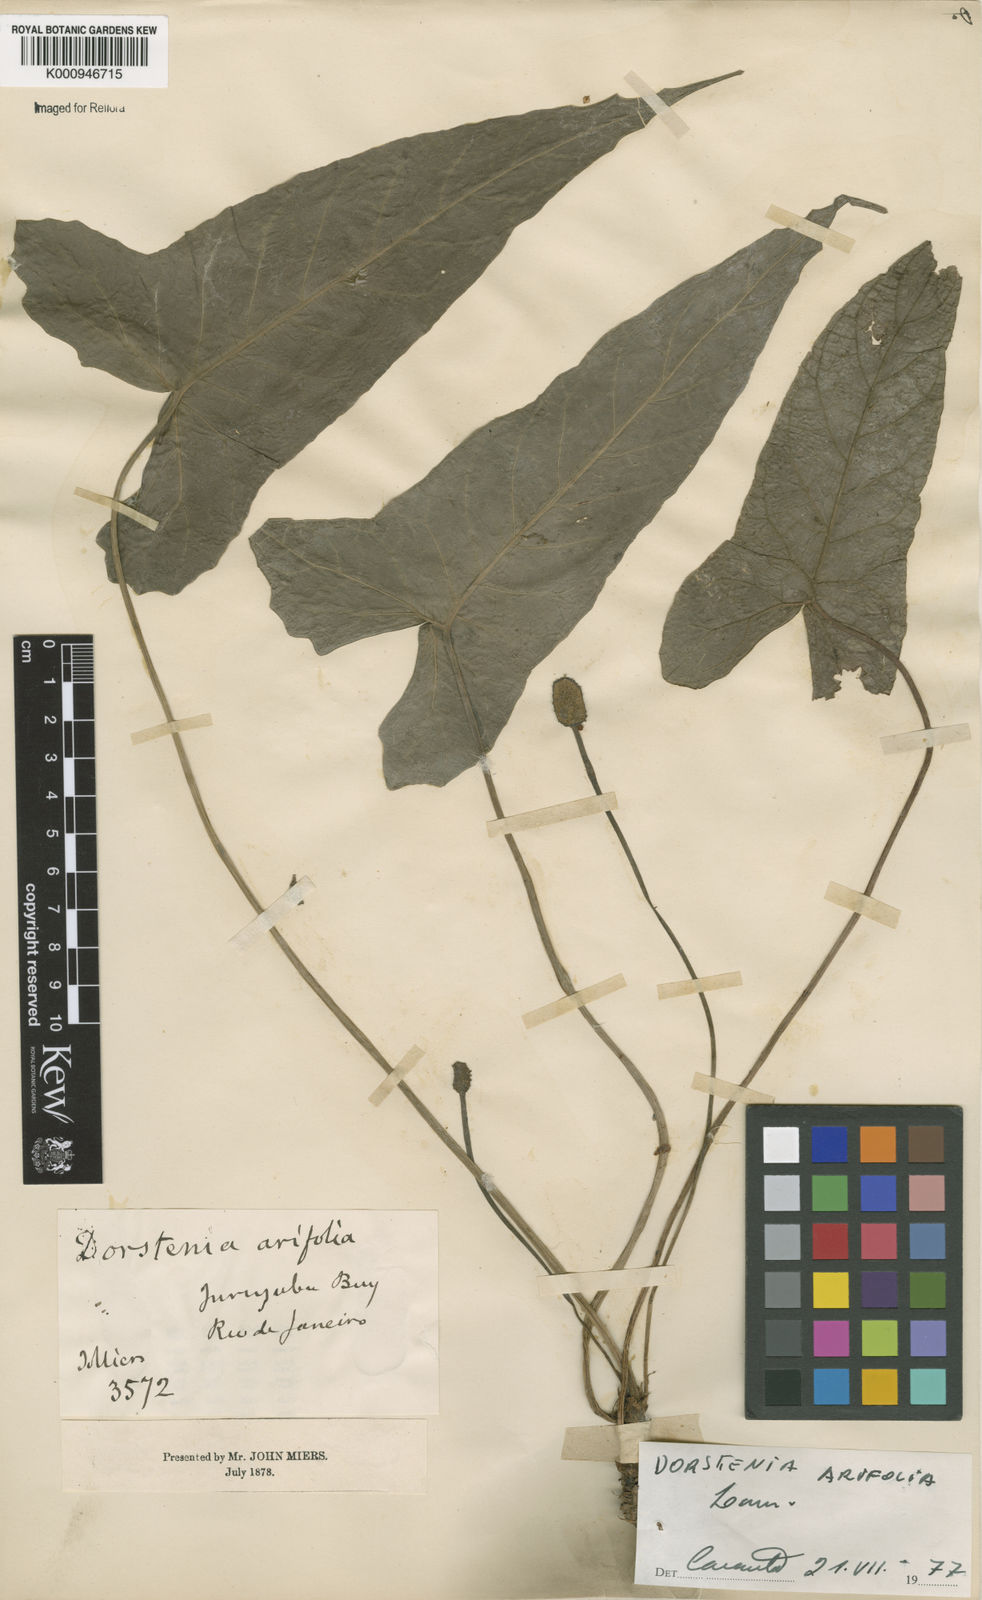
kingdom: Plantae
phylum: Tracheophyta
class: Magnoliopsida
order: Rosales
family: Moraceae
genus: Dorstenia
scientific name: Dorstenia arifolia
